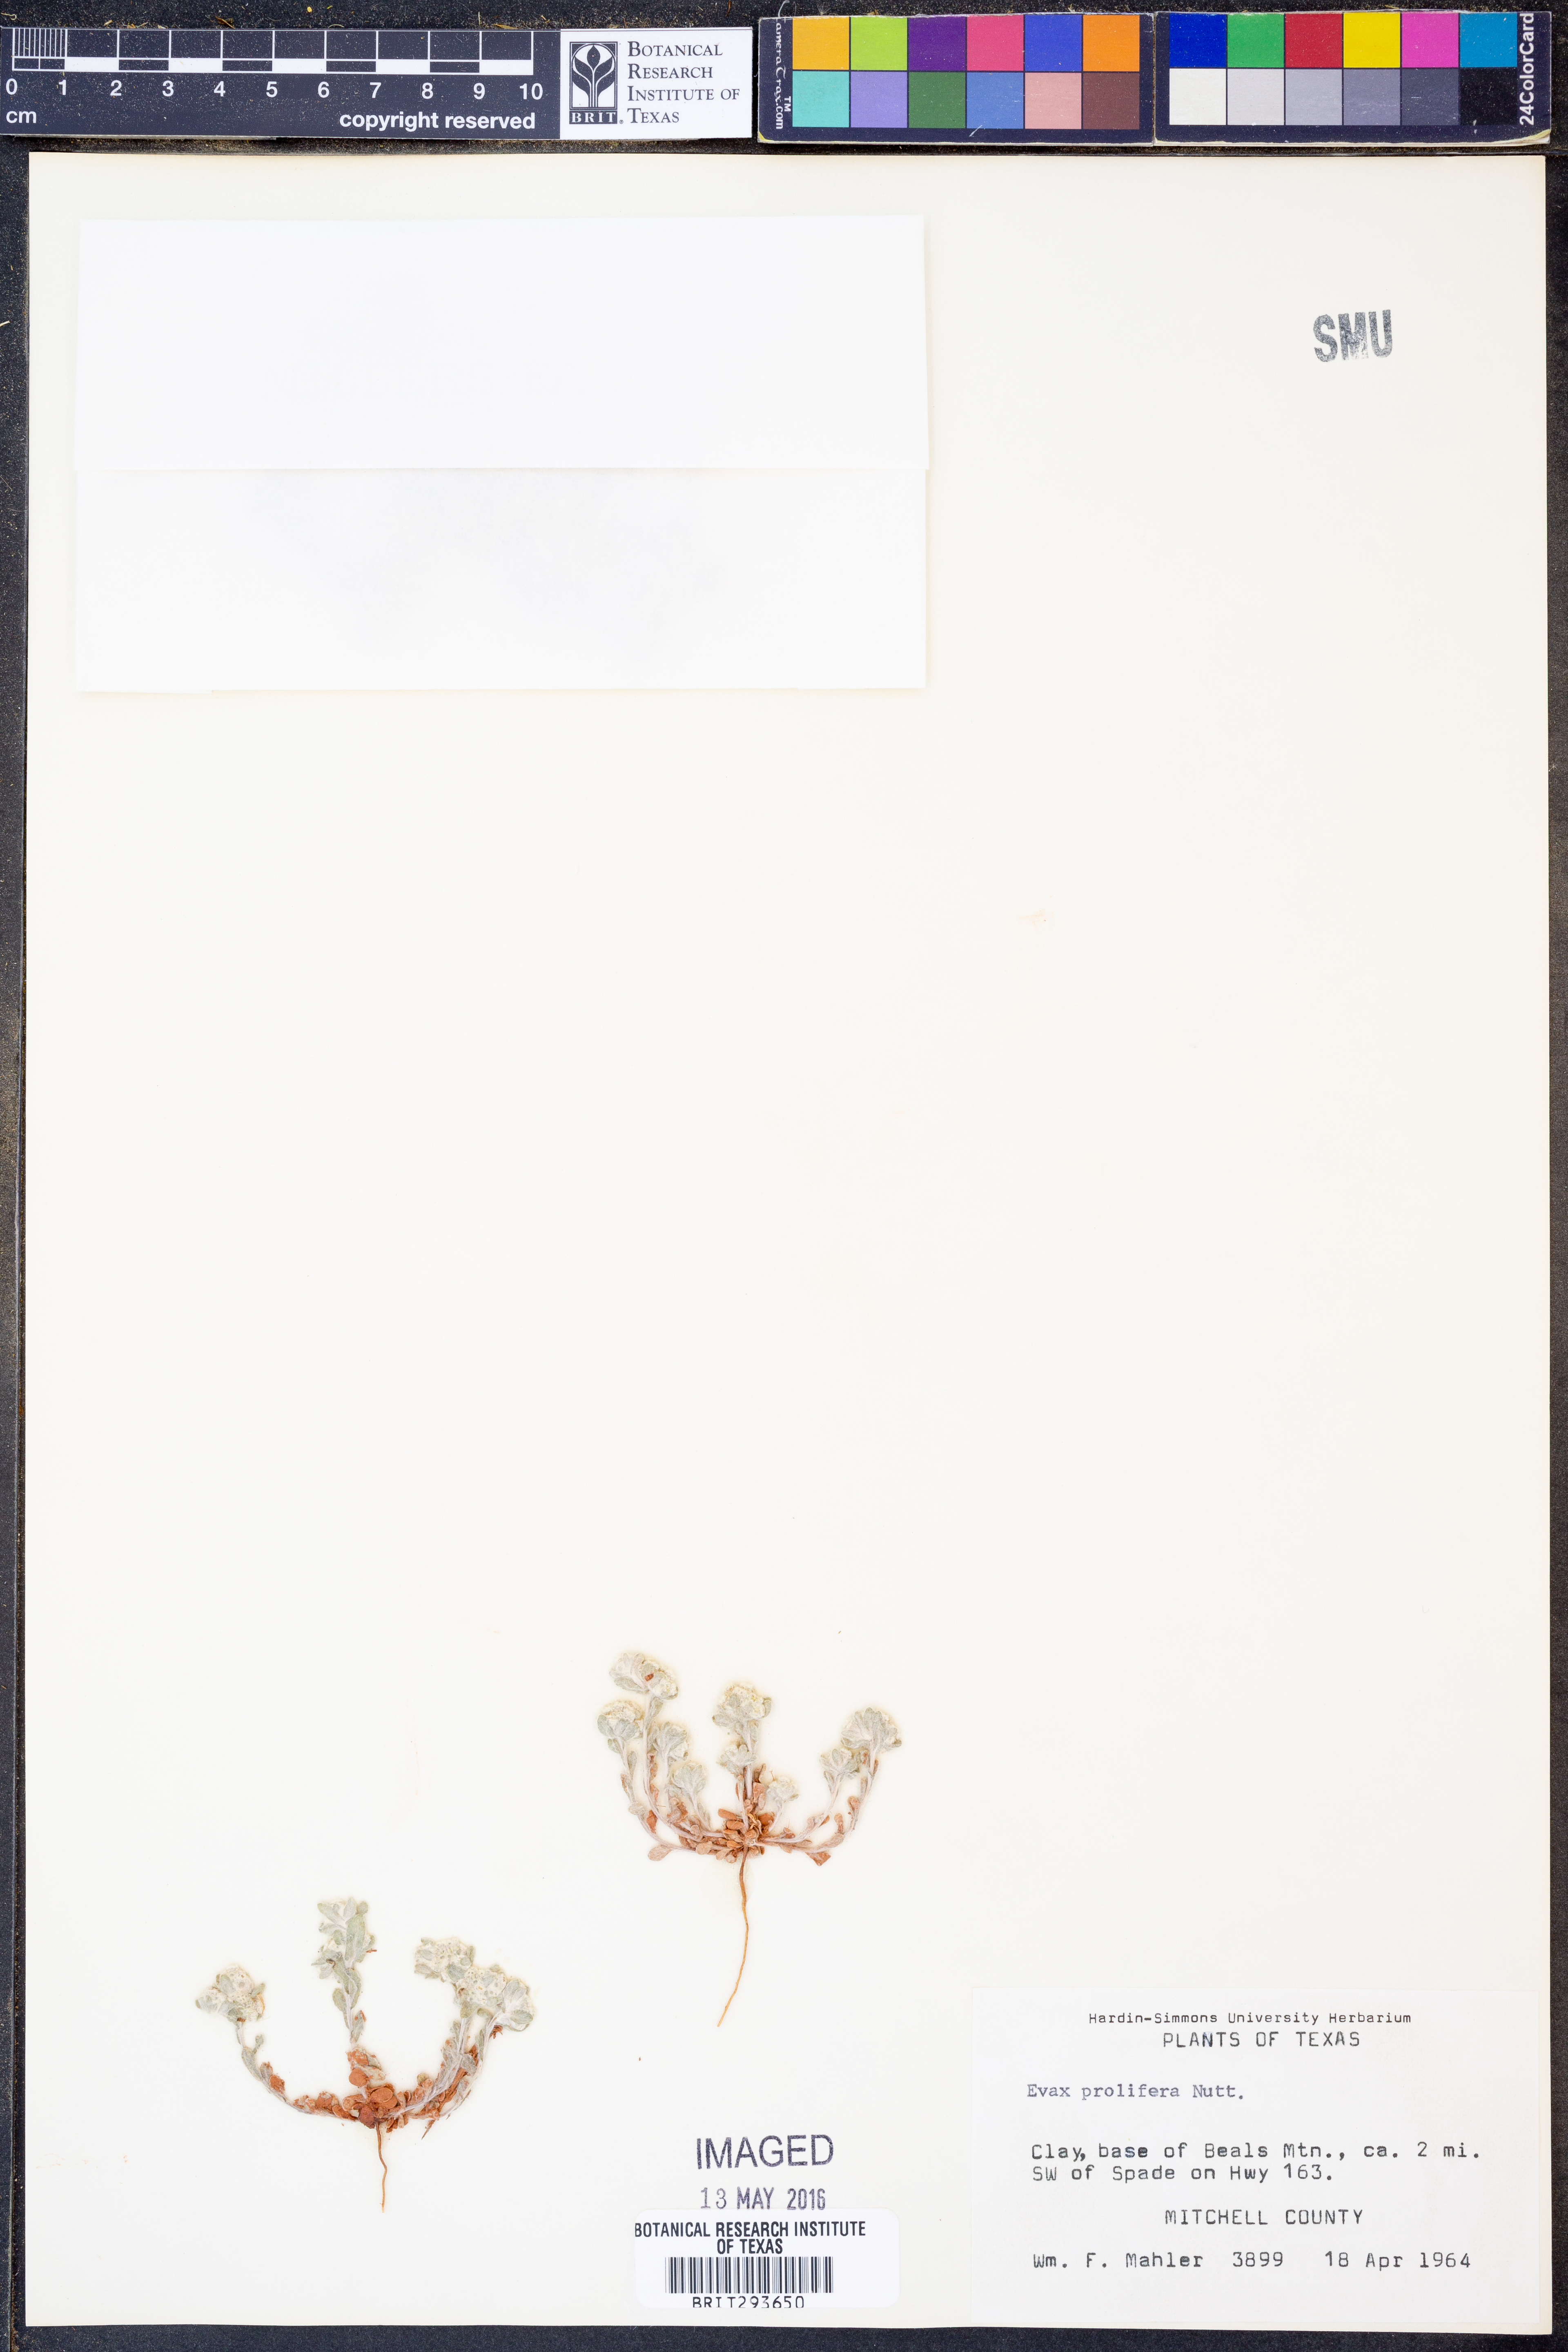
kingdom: Plantae
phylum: Tracheophyta
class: Magnoliopsida
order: Asterales
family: Asteraceae
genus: Diaperia
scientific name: Diaperia prolifera
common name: Big-head rabbit-tobacco
